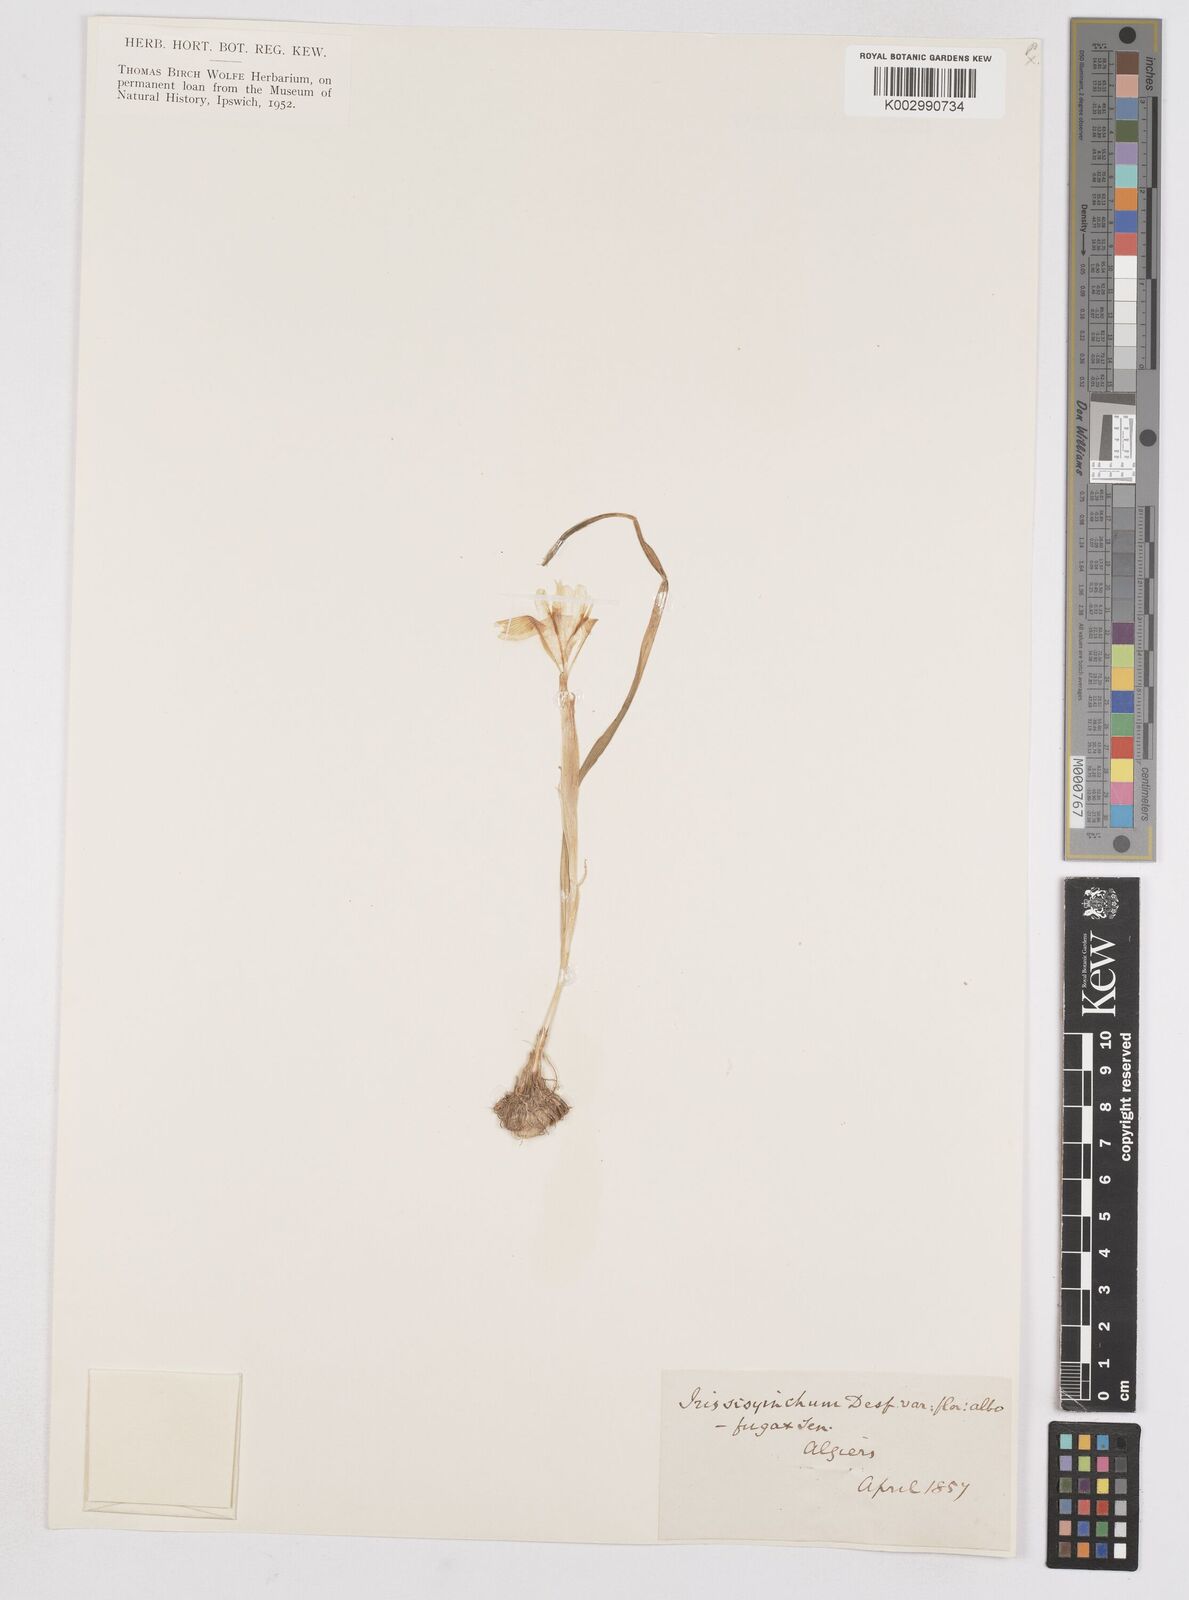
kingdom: Plantae
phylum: Tracheophyta
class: Liliopsida
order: Asparagales
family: Iridaceae
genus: Moraea
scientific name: Moraea sisyrinchium
